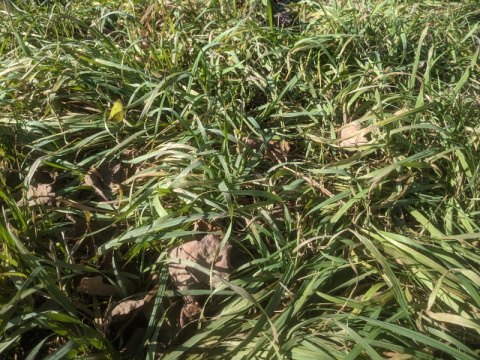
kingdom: Animalia
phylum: Arthropoda
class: Insecta
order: Lepidoptera
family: Pieridae
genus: Colias
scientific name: Colias philodice
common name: Clouded Sulphur
